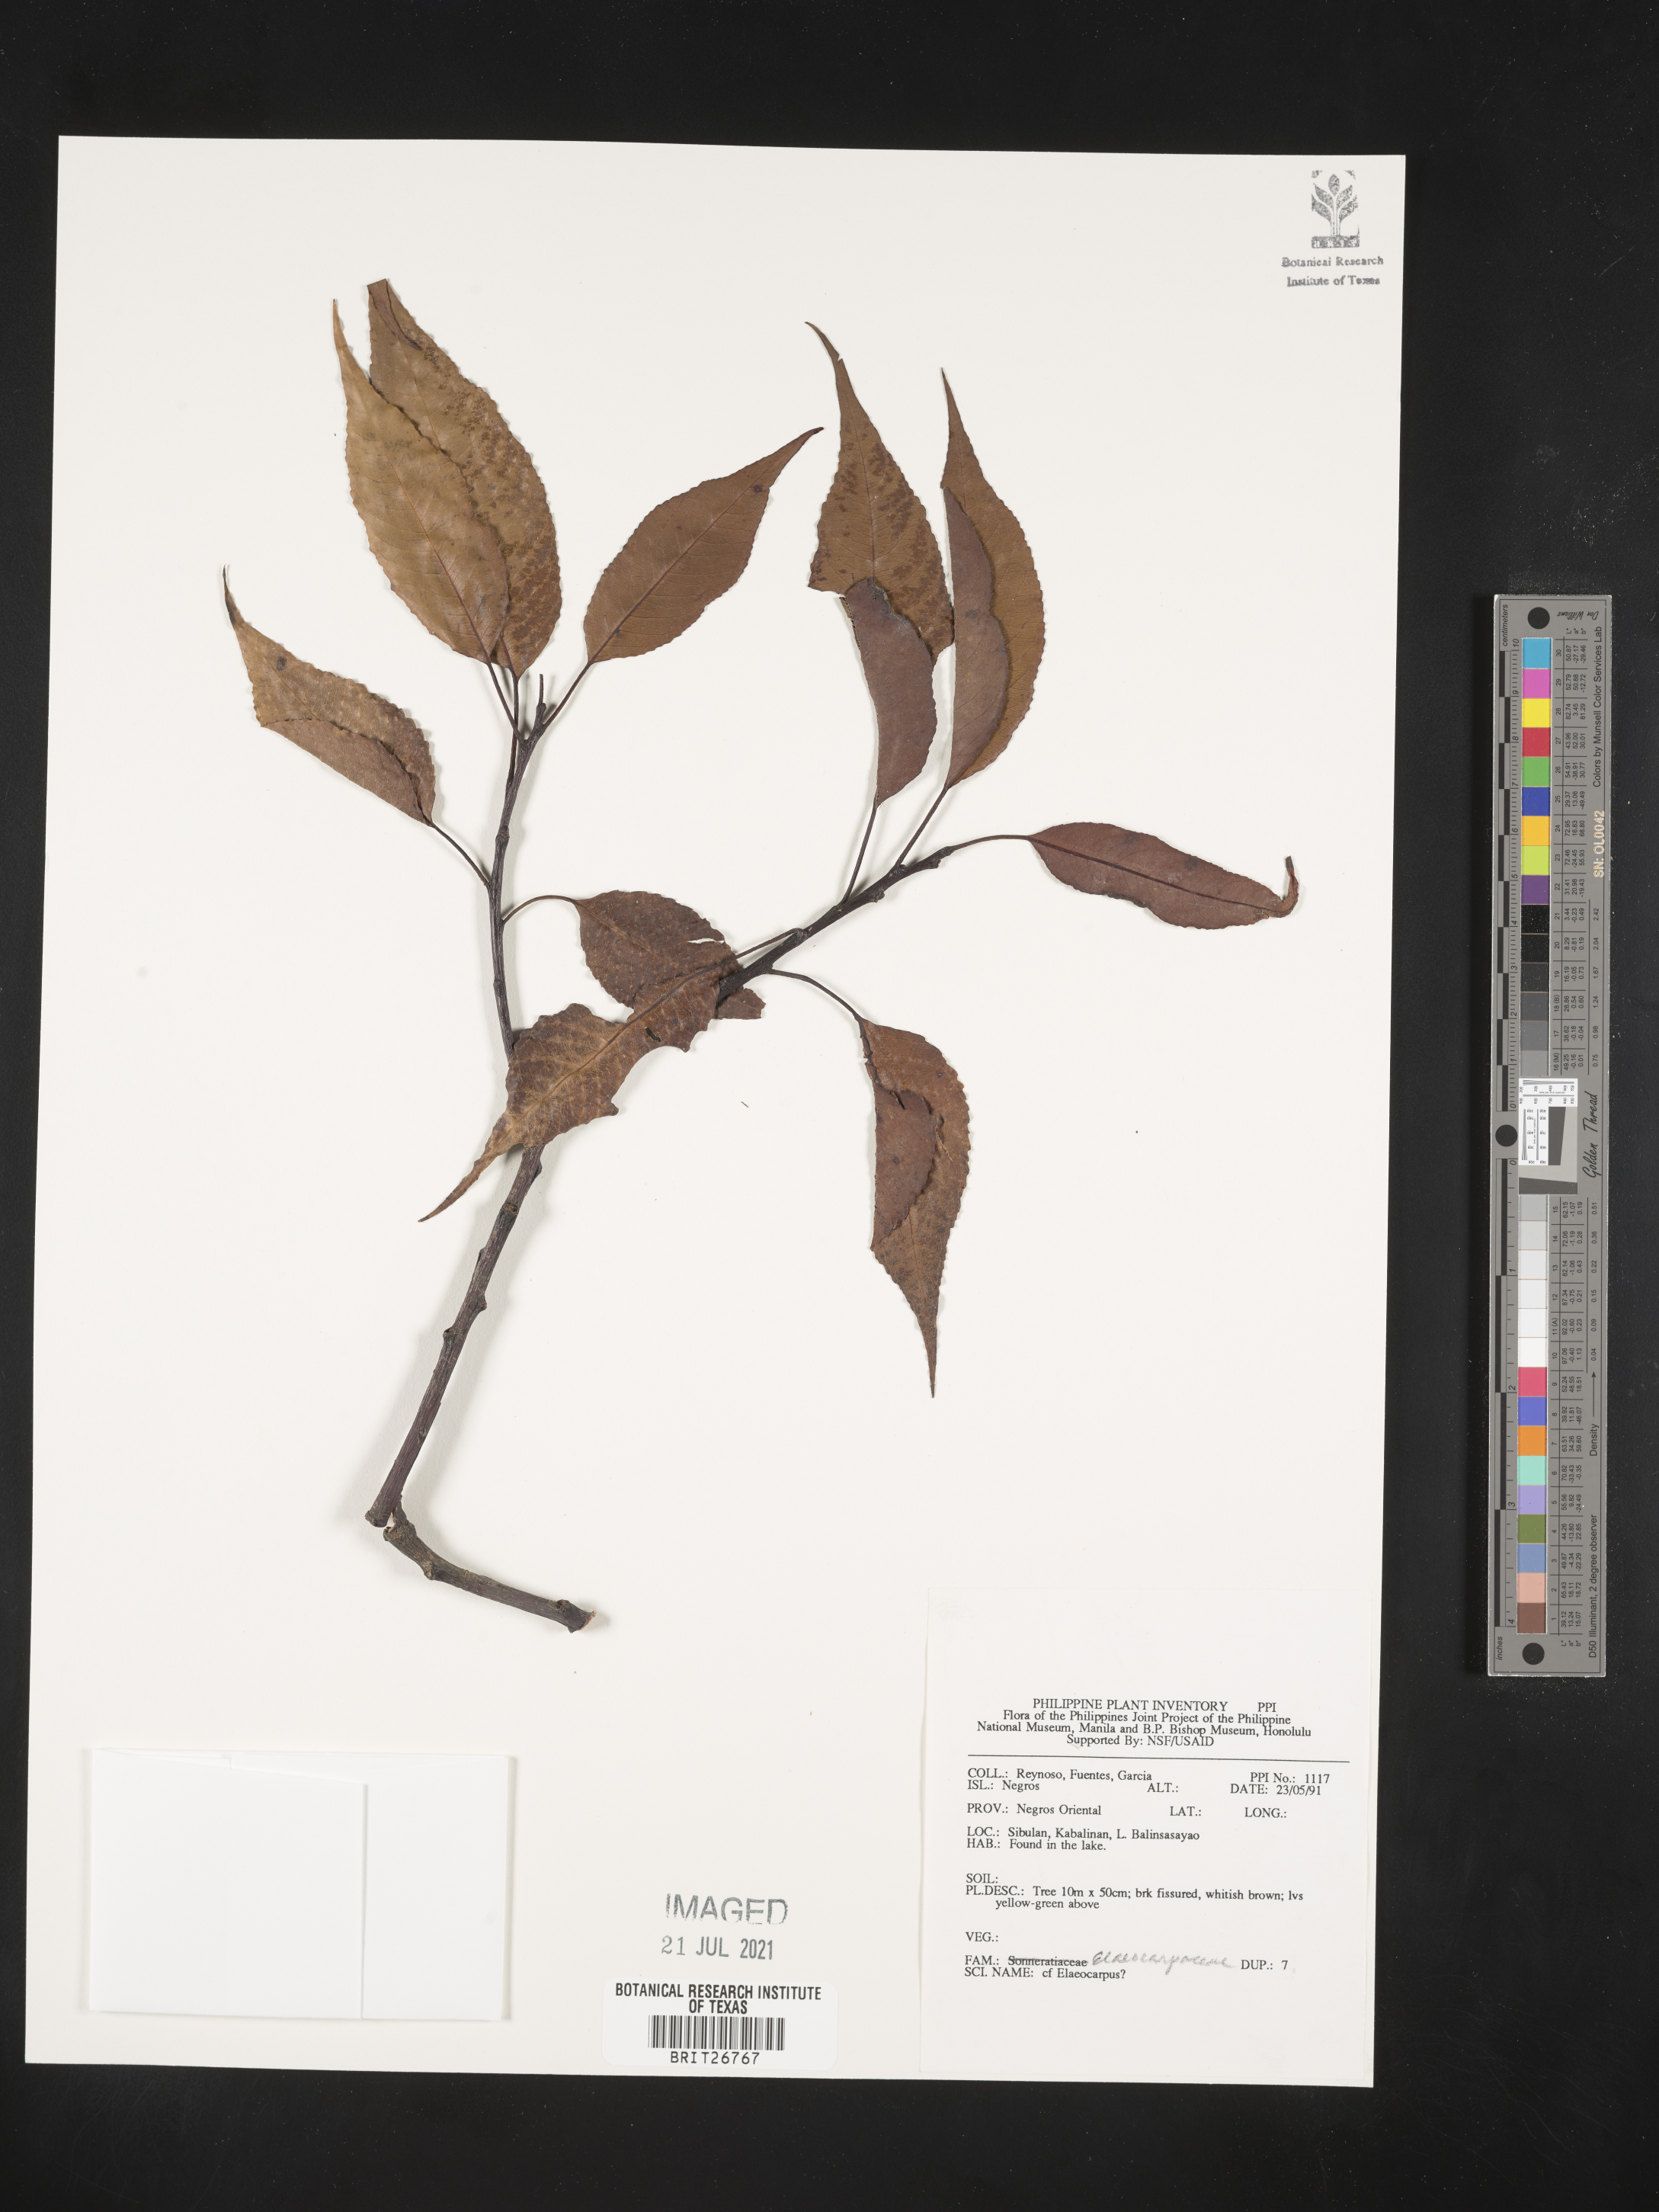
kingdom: Plantae
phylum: Tracheophyta
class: Magnoliopsida
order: Oxalidales
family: Elaeocarpaceae
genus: Elaeocarpus
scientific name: Elaeocarpus
